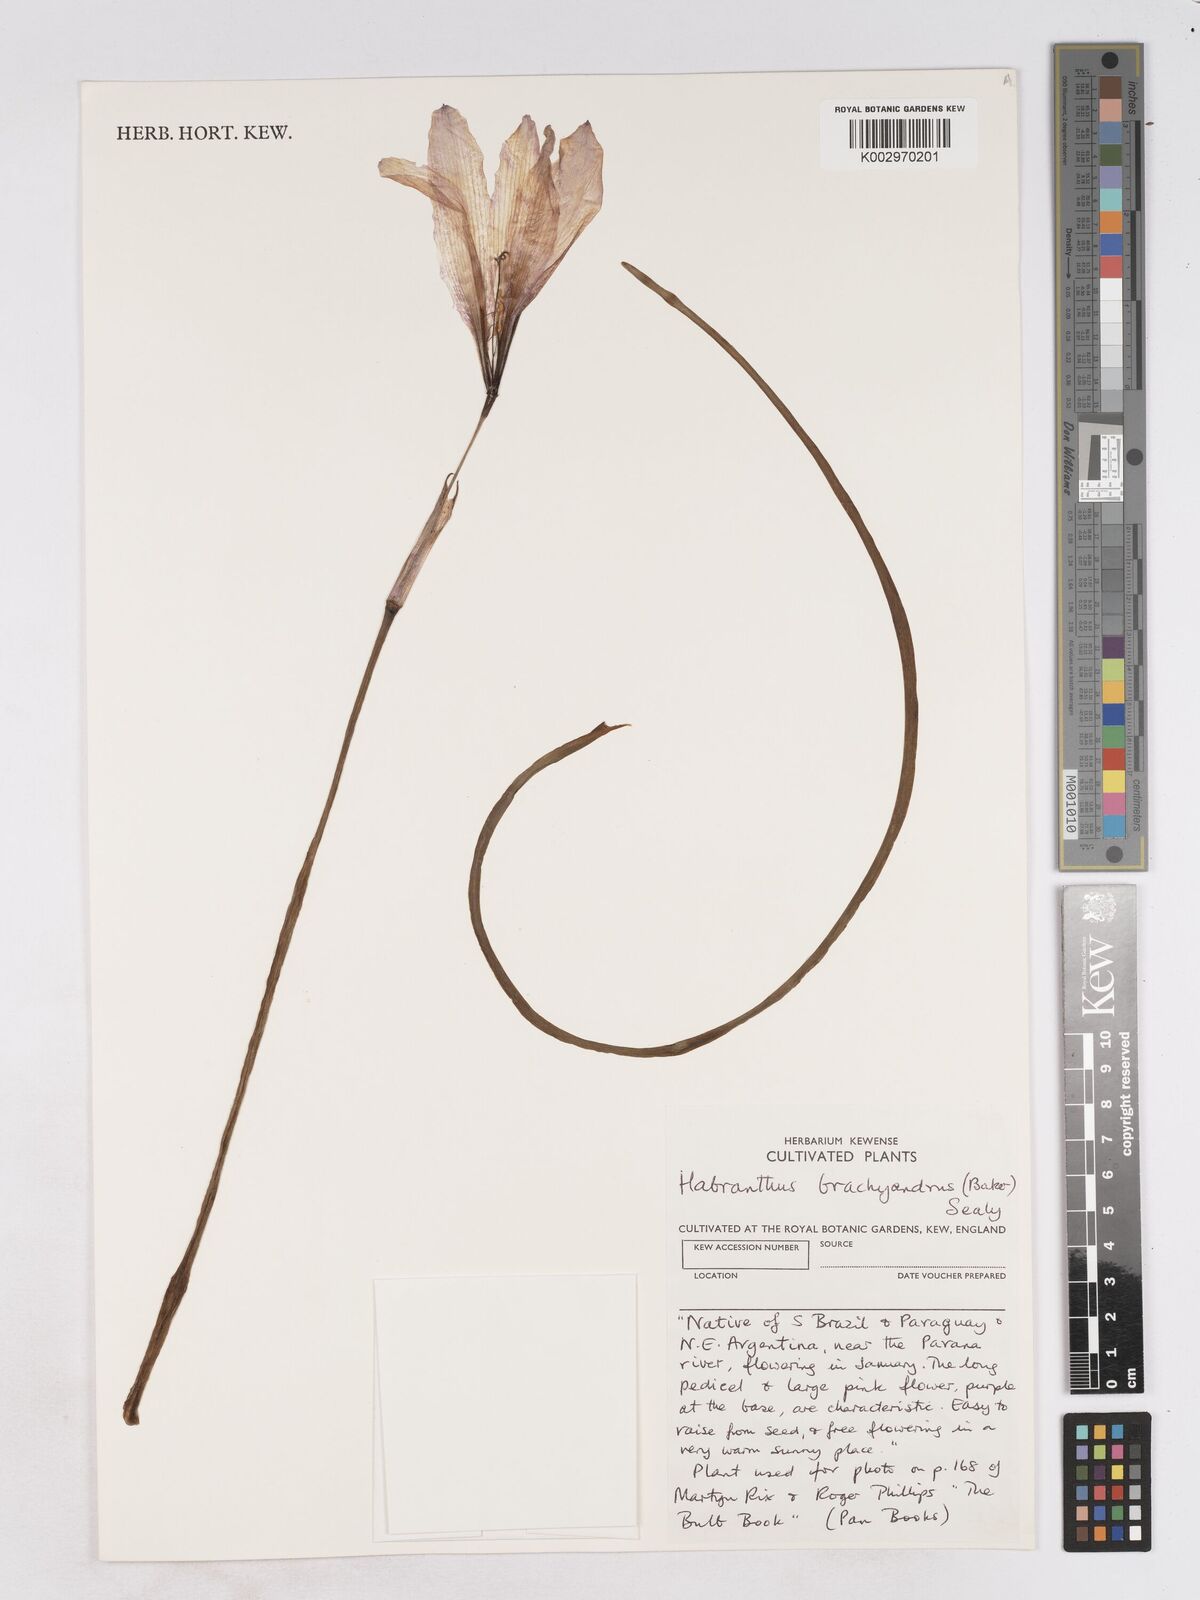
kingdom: Plantae
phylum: Tracheophyta
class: Liliopsida
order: Asparagales
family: Amaryllidaceae
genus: Zephyranthes
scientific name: Zephyranthes brachyandra
